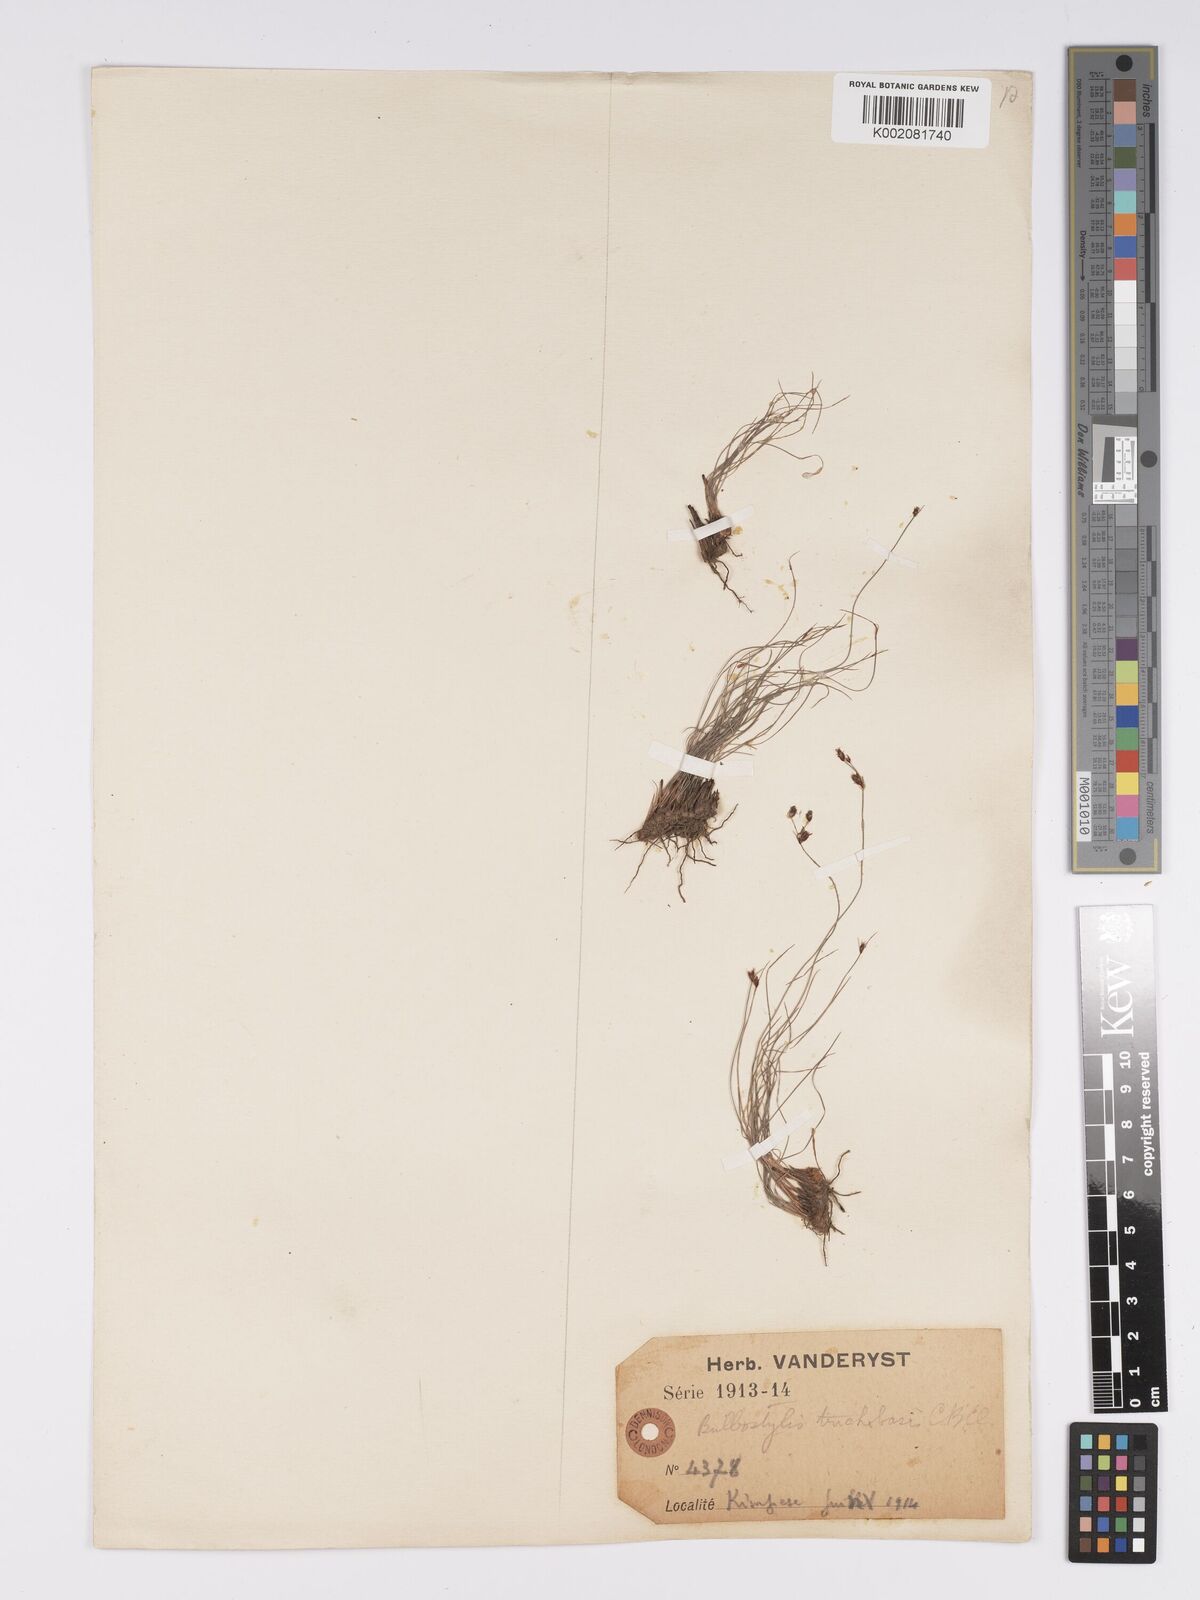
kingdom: Plantae
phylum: Tracheophyta
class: Liliopsida
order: Poales
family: Cyperaceae
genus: Bulbostylis
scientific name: Bulbostylis oritrephes
